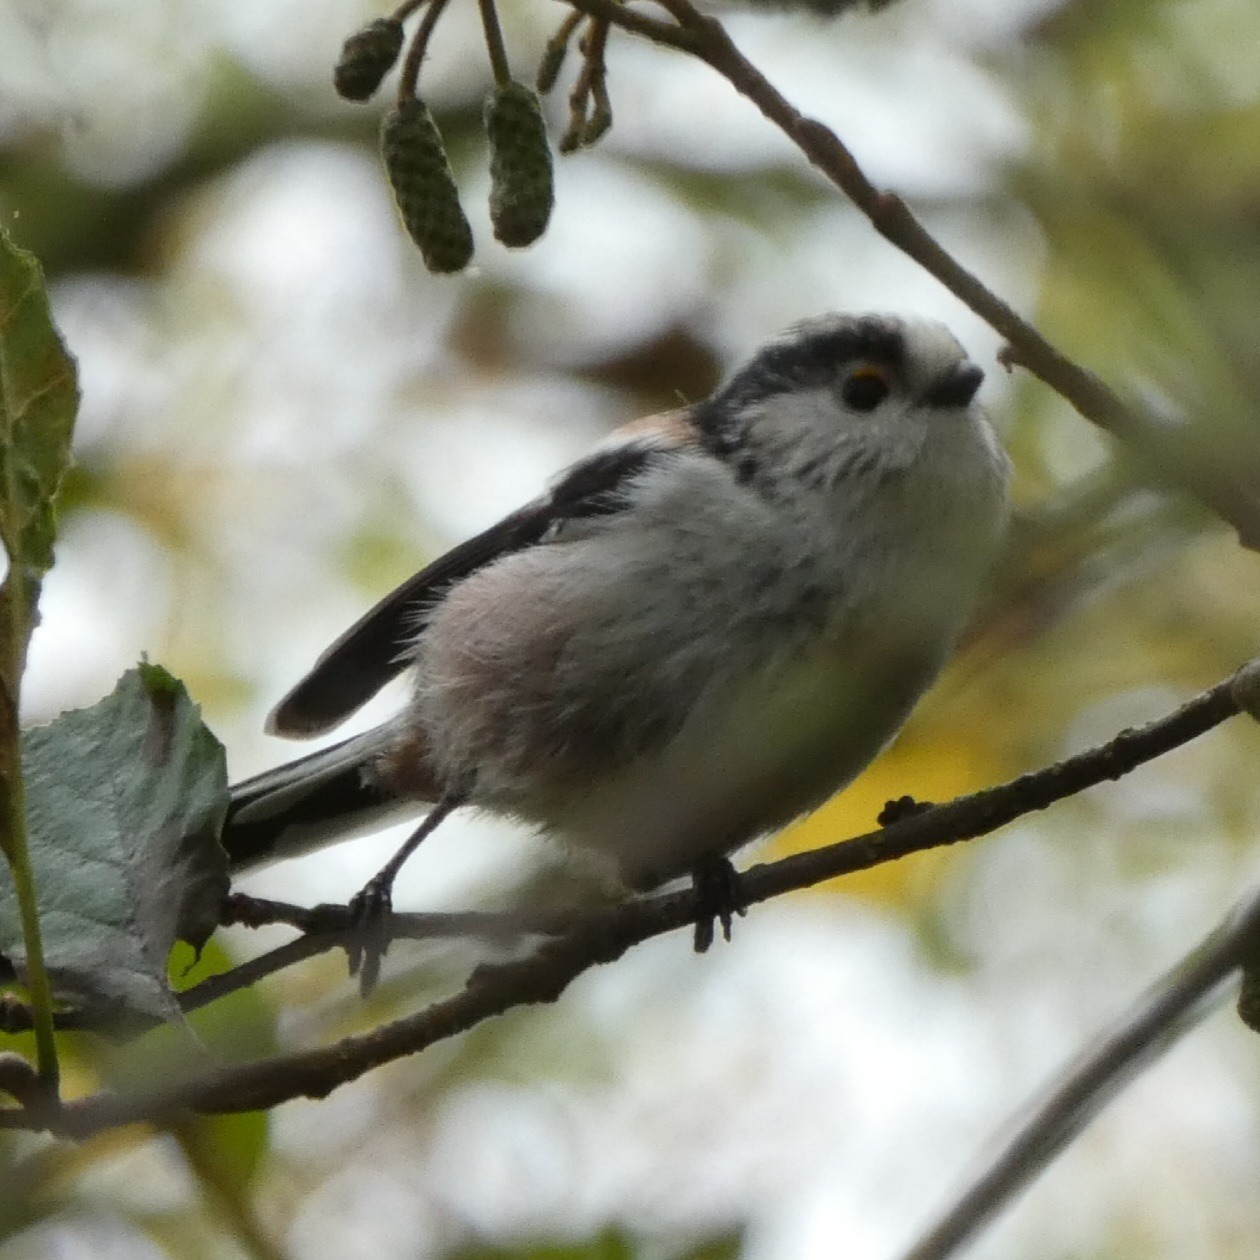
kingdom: Animalia
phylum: Chordata
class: Aves
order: Passeriformes
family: Aegithalidae
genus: Aegithalos
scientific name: Aegithalos caudatus
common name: Sydlig halemejse
